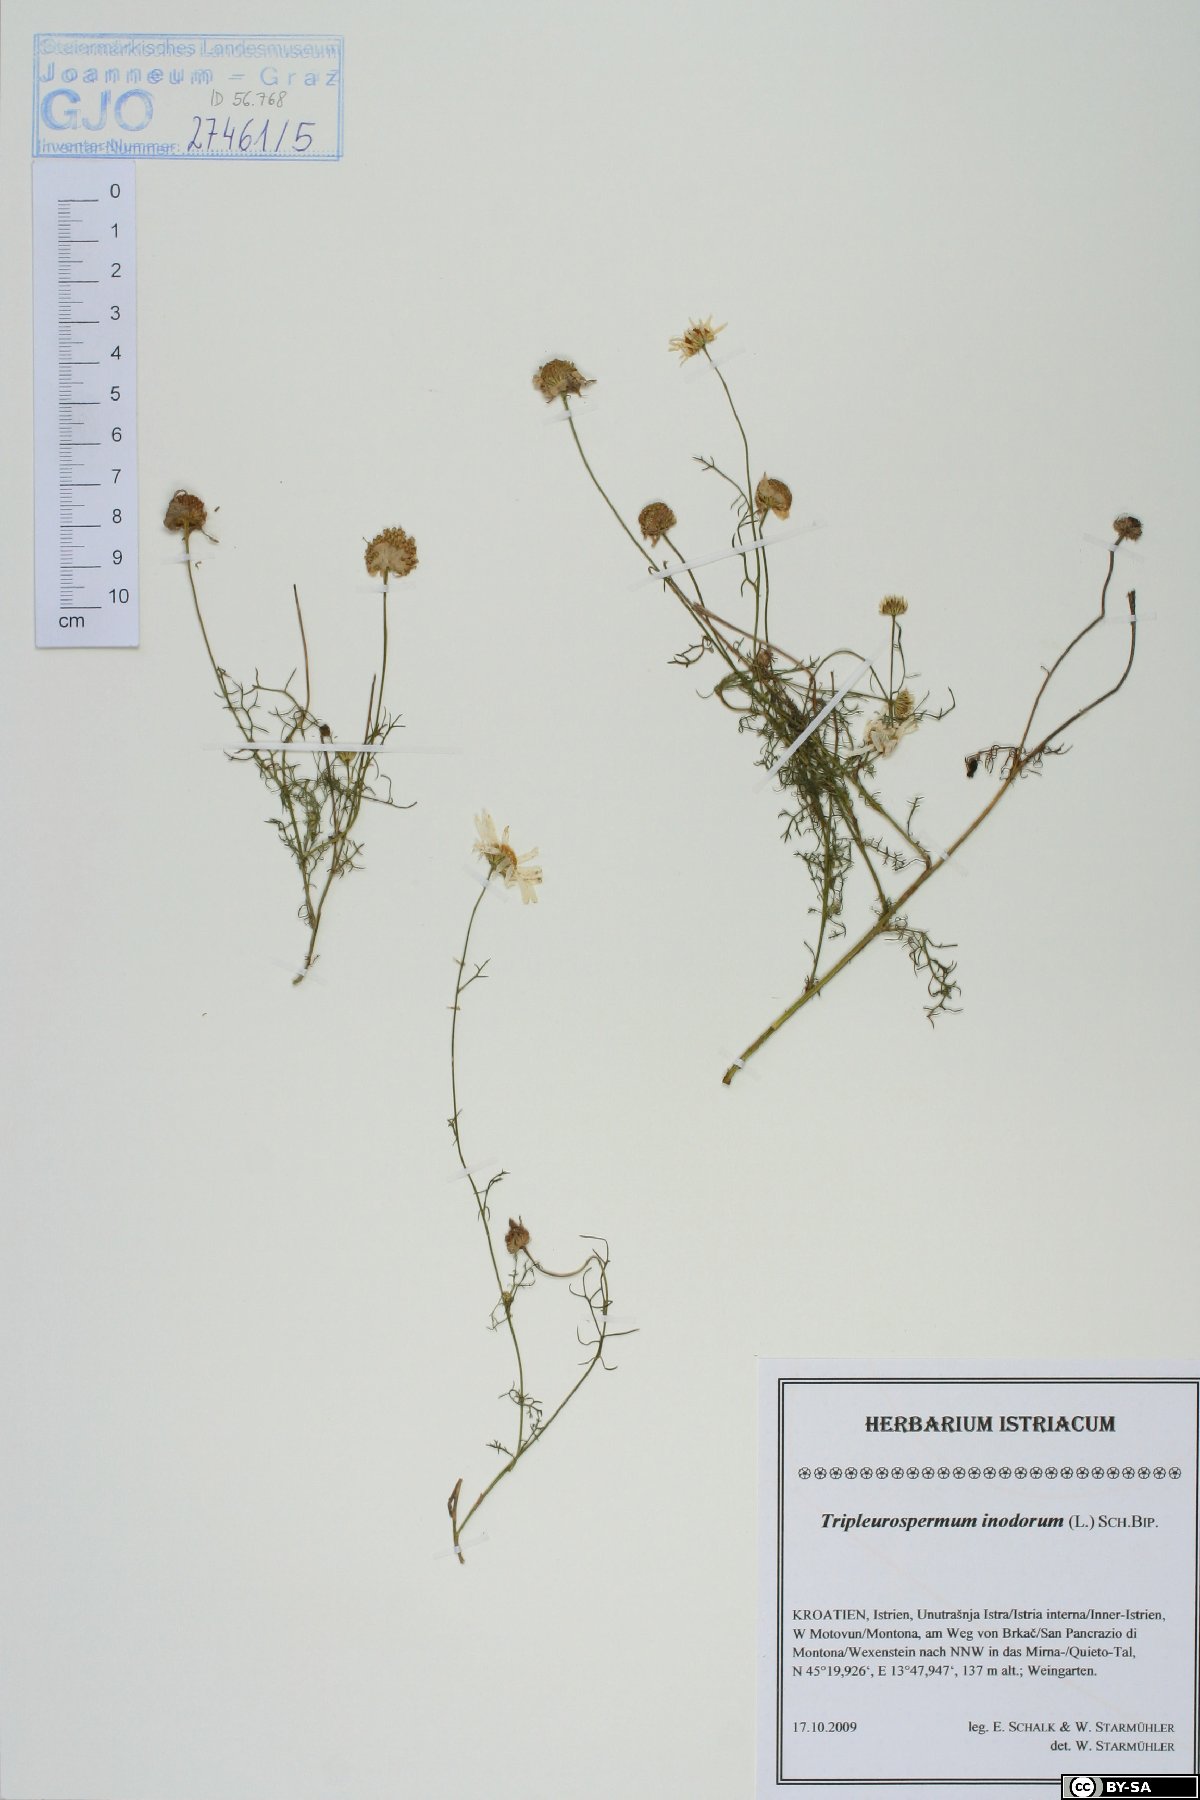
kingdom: Plantae
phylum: Tracheophyta
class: Magnoliopsida
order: Asterales
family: Asteraceae
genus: Tripleurospermum
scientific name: Tripleurospermum inodorum
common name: Scentless mayweed
